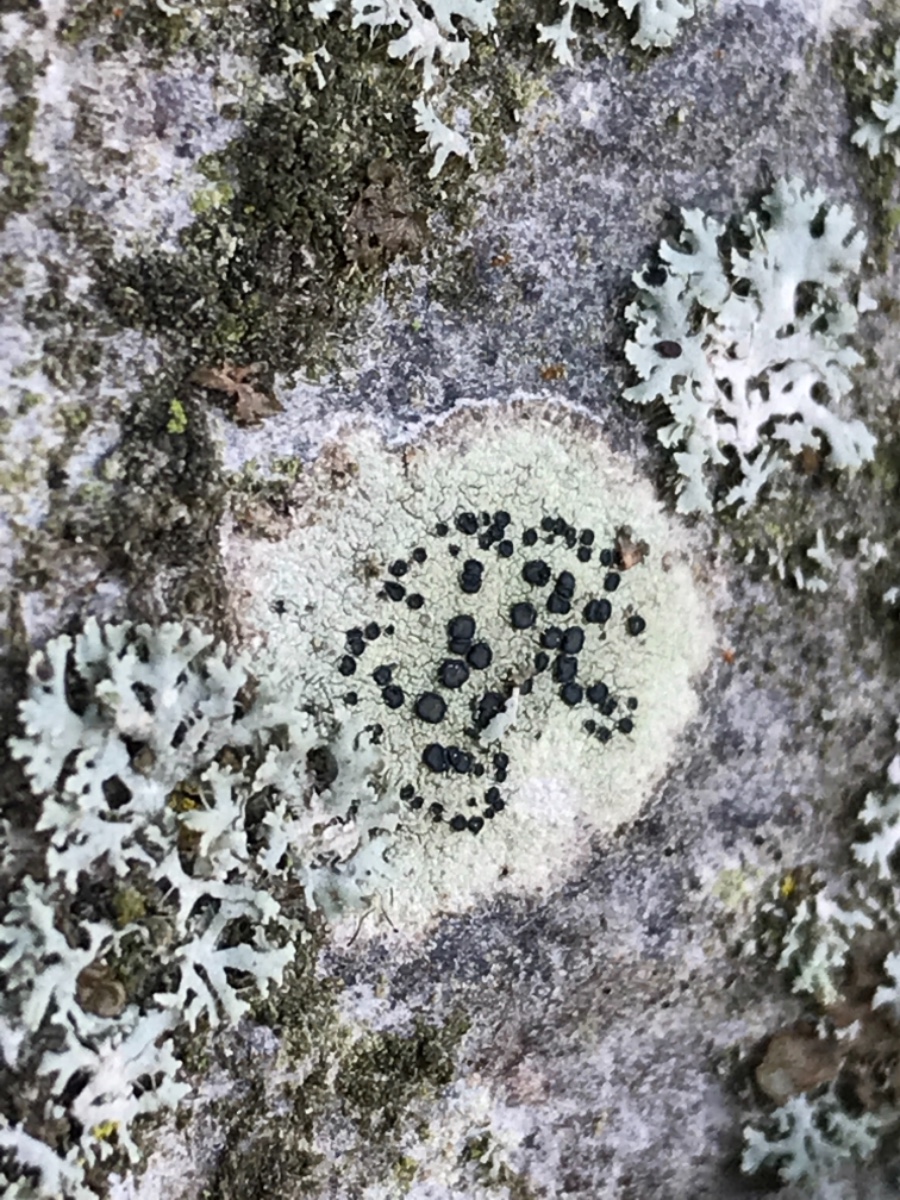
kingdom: Fungi
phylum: Ascomycota
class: Lecanoromycetes
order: Lecanorales
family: Lecanoraceae
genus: Lecidella
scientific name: Lecidella elaeochroma
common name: grågrøn skivelav
